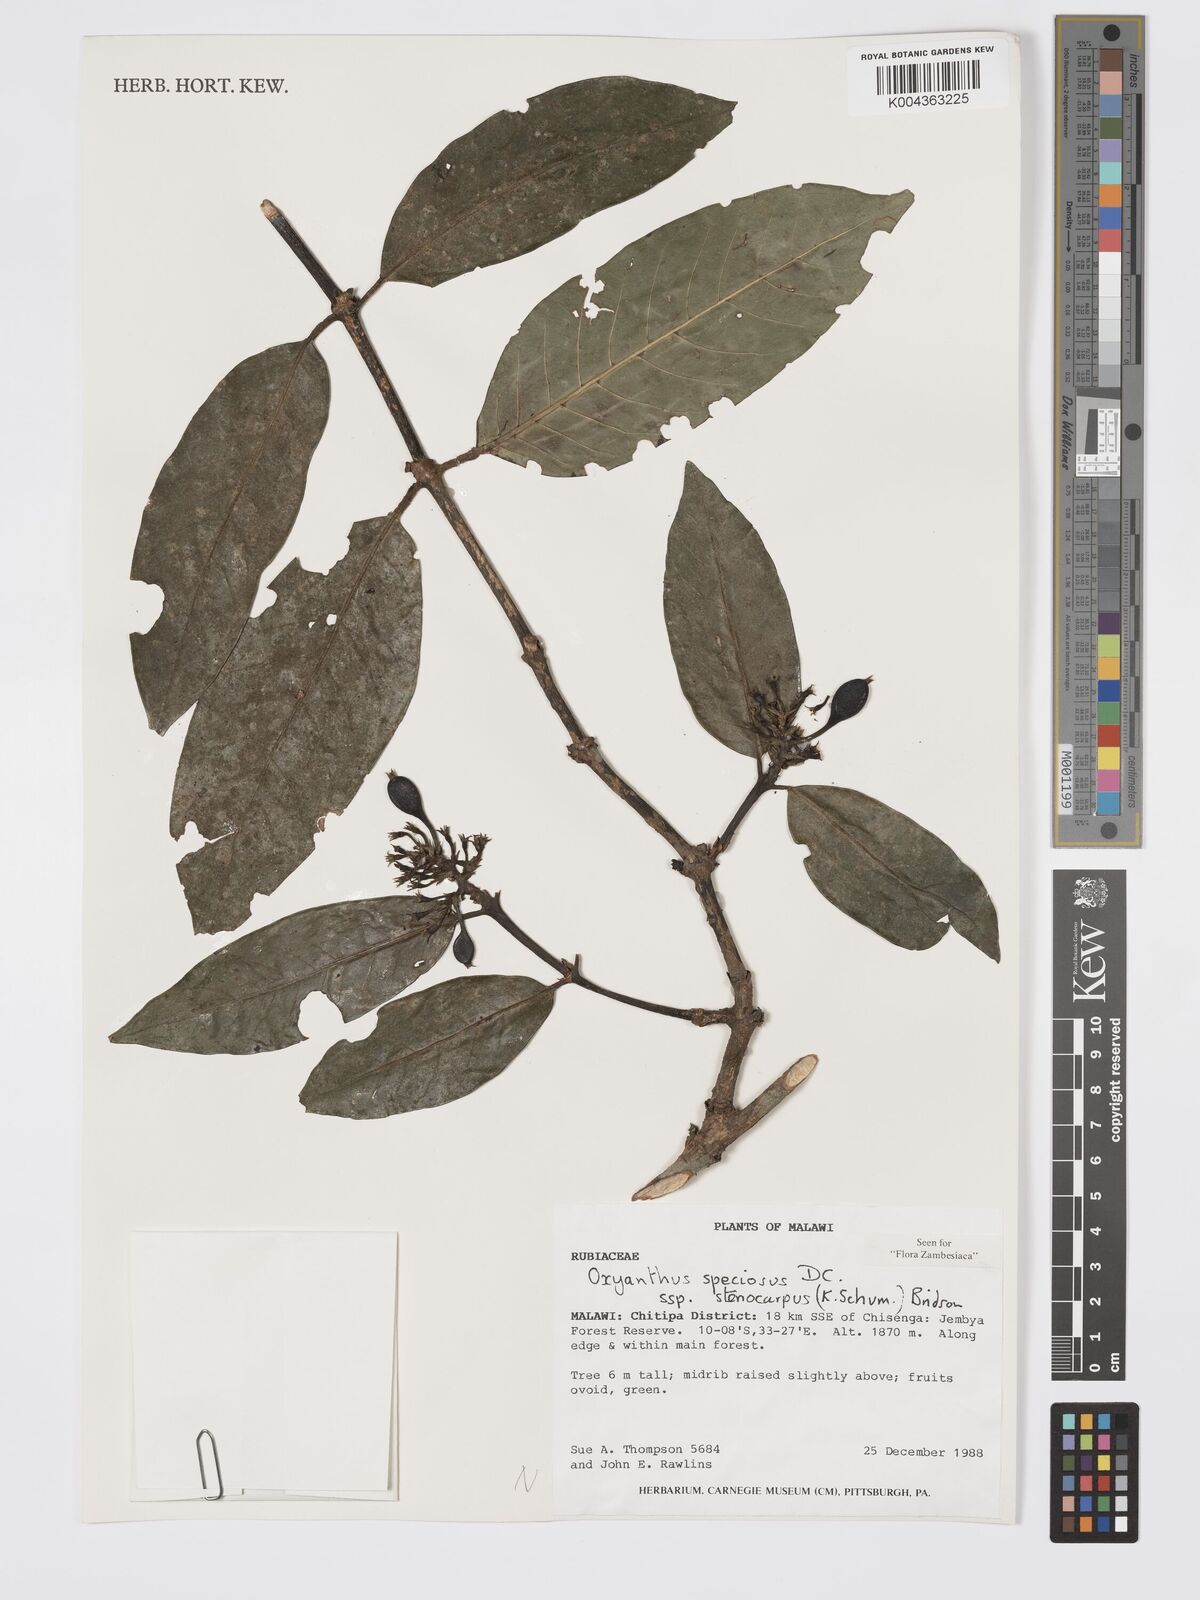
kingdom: Plantae
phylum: Tracheophyta
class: Magnoliopsida
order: Gentianales
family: Rubiaceae
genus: Oxyanthus
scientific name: Oxyanthus speciosus
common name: Whipstick loquat
